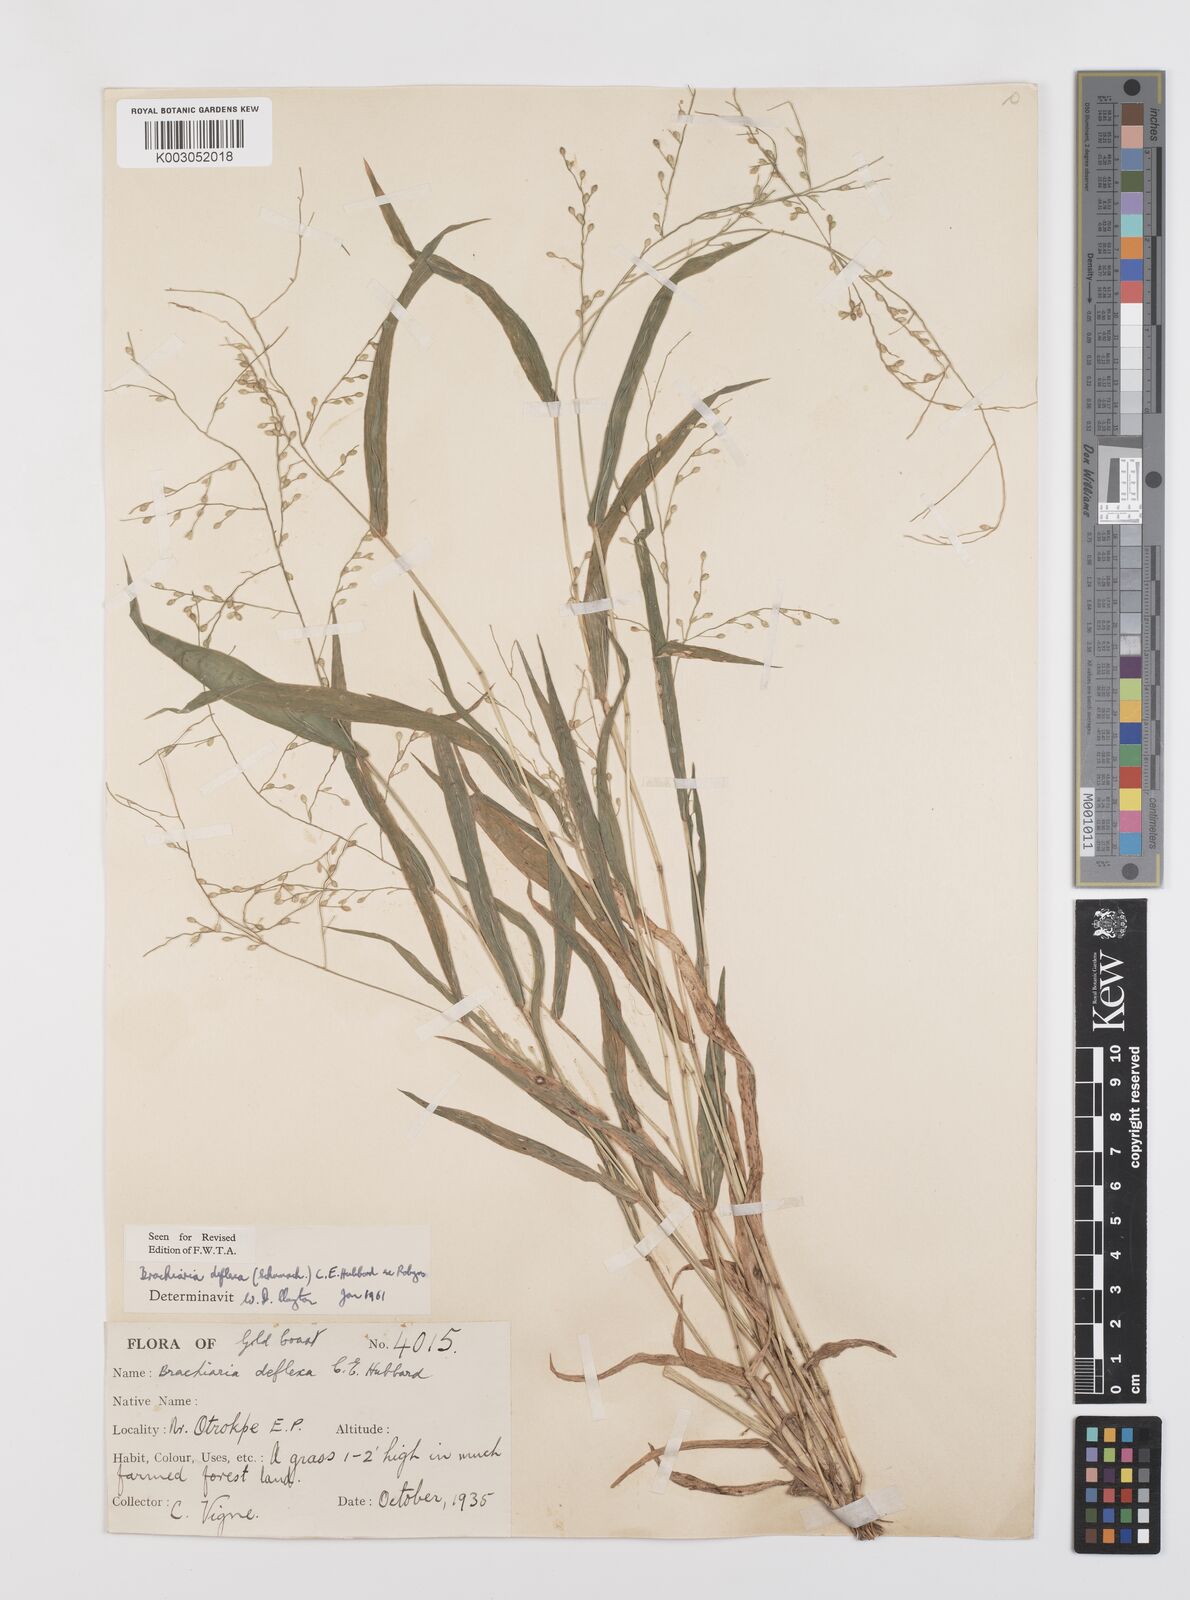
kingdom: Plantae
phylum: Tracheophyta
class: Liliopsida
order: Poales
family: Poaceae
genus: Urochloa
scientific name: Urochloa deflexa
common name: Guinea millet
